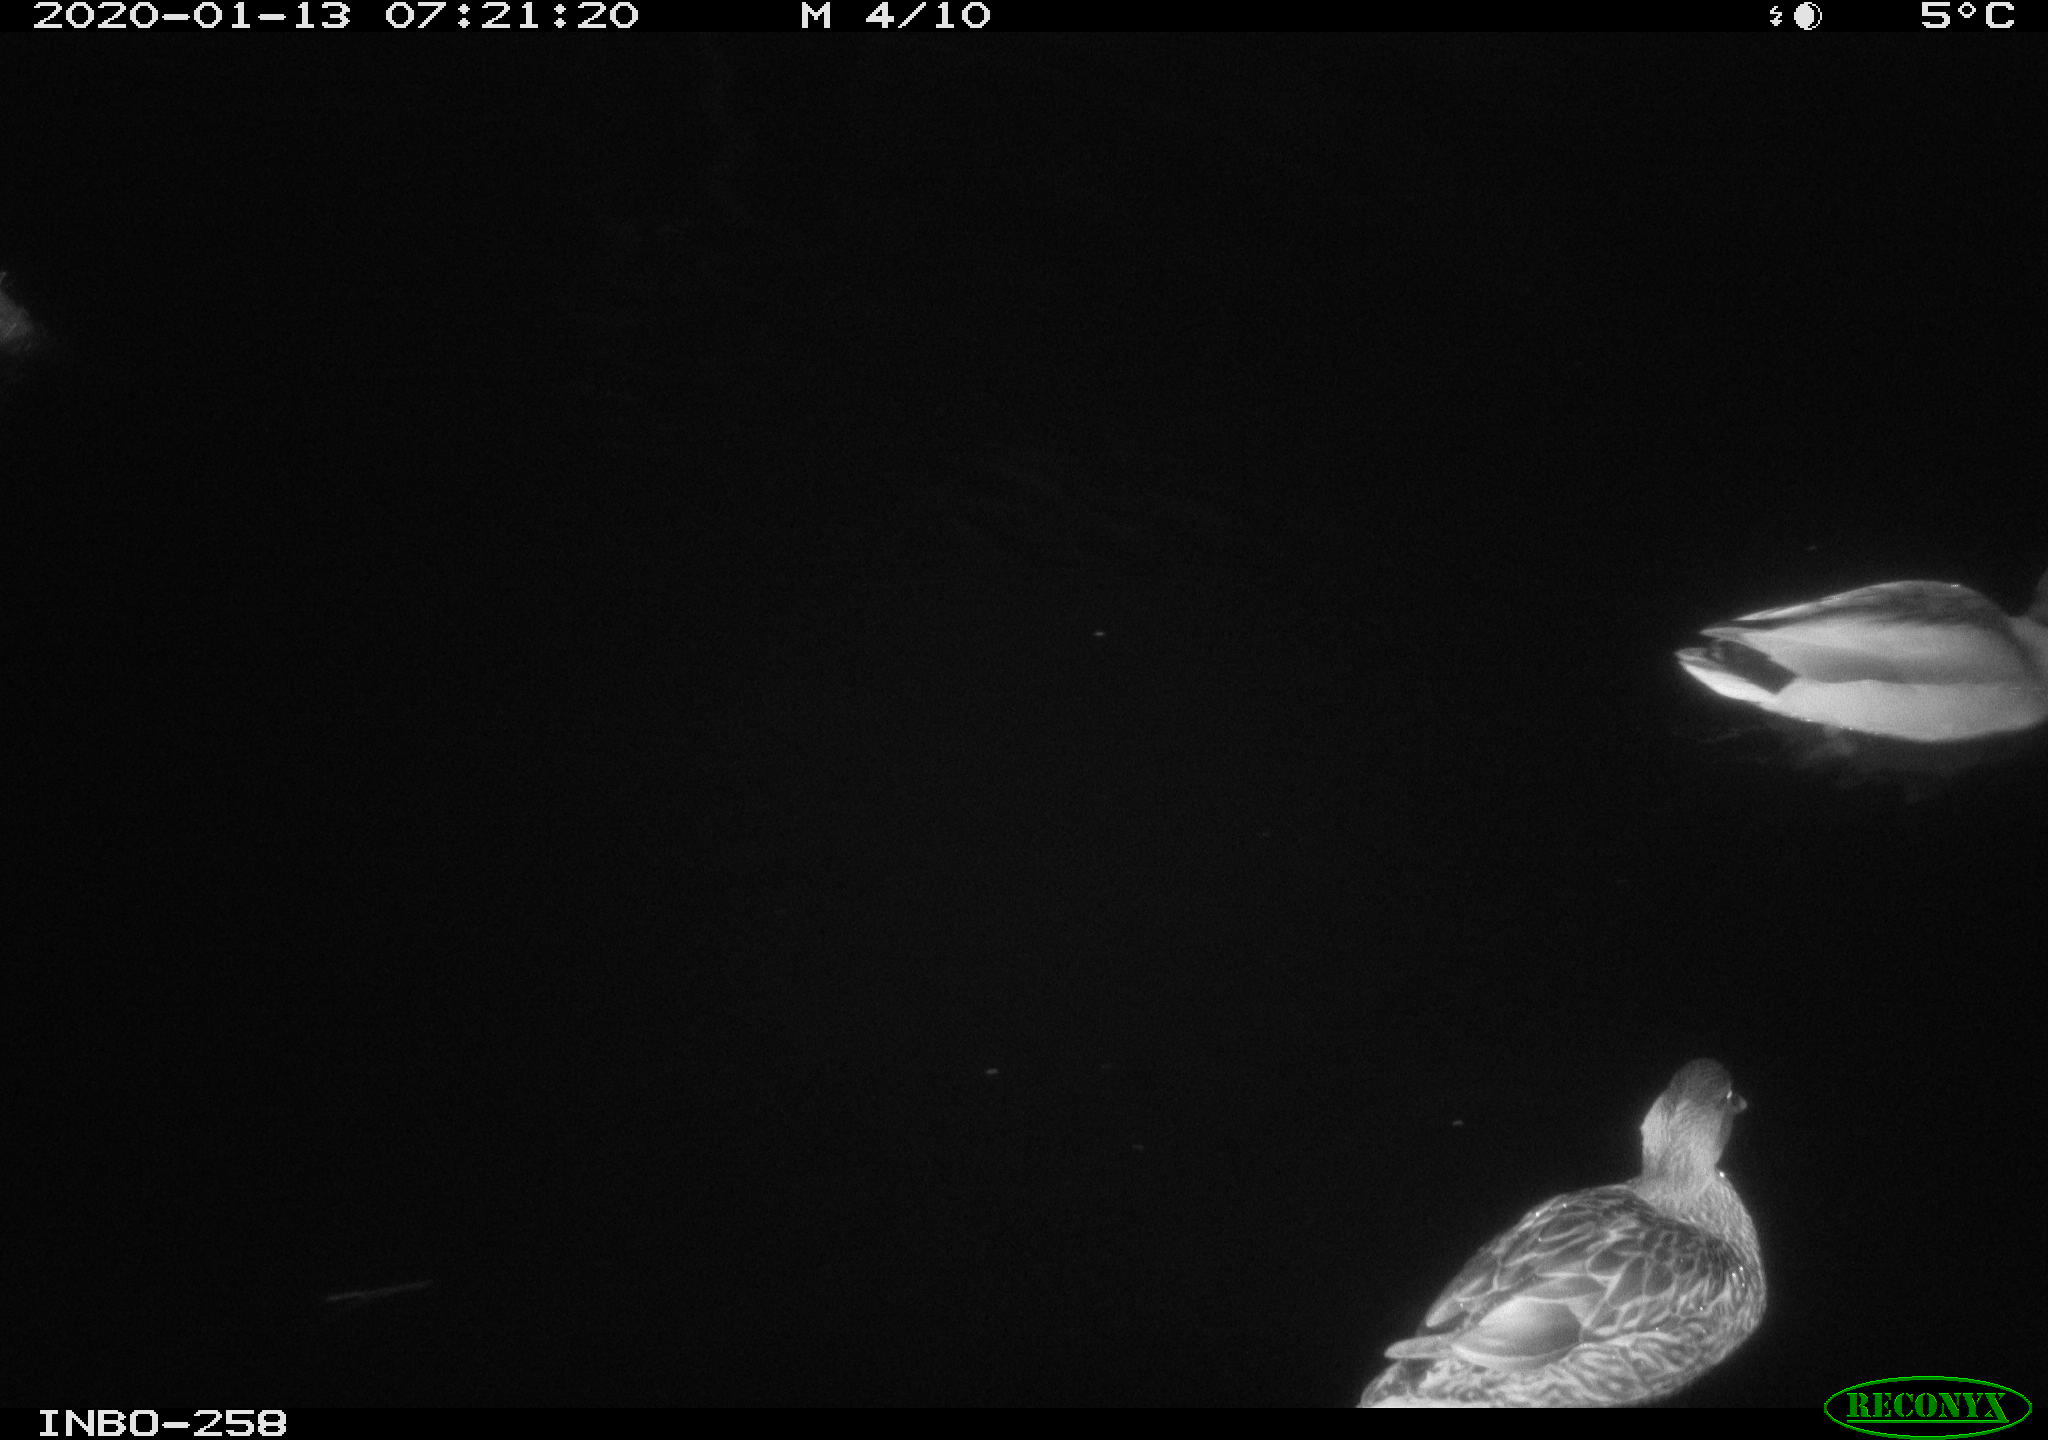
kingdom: Animalia
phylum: Chordata
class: Aves
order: Anseriformes
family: Anatidae
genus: Anas
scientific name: Anas platyrhynchos
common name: Mallard
